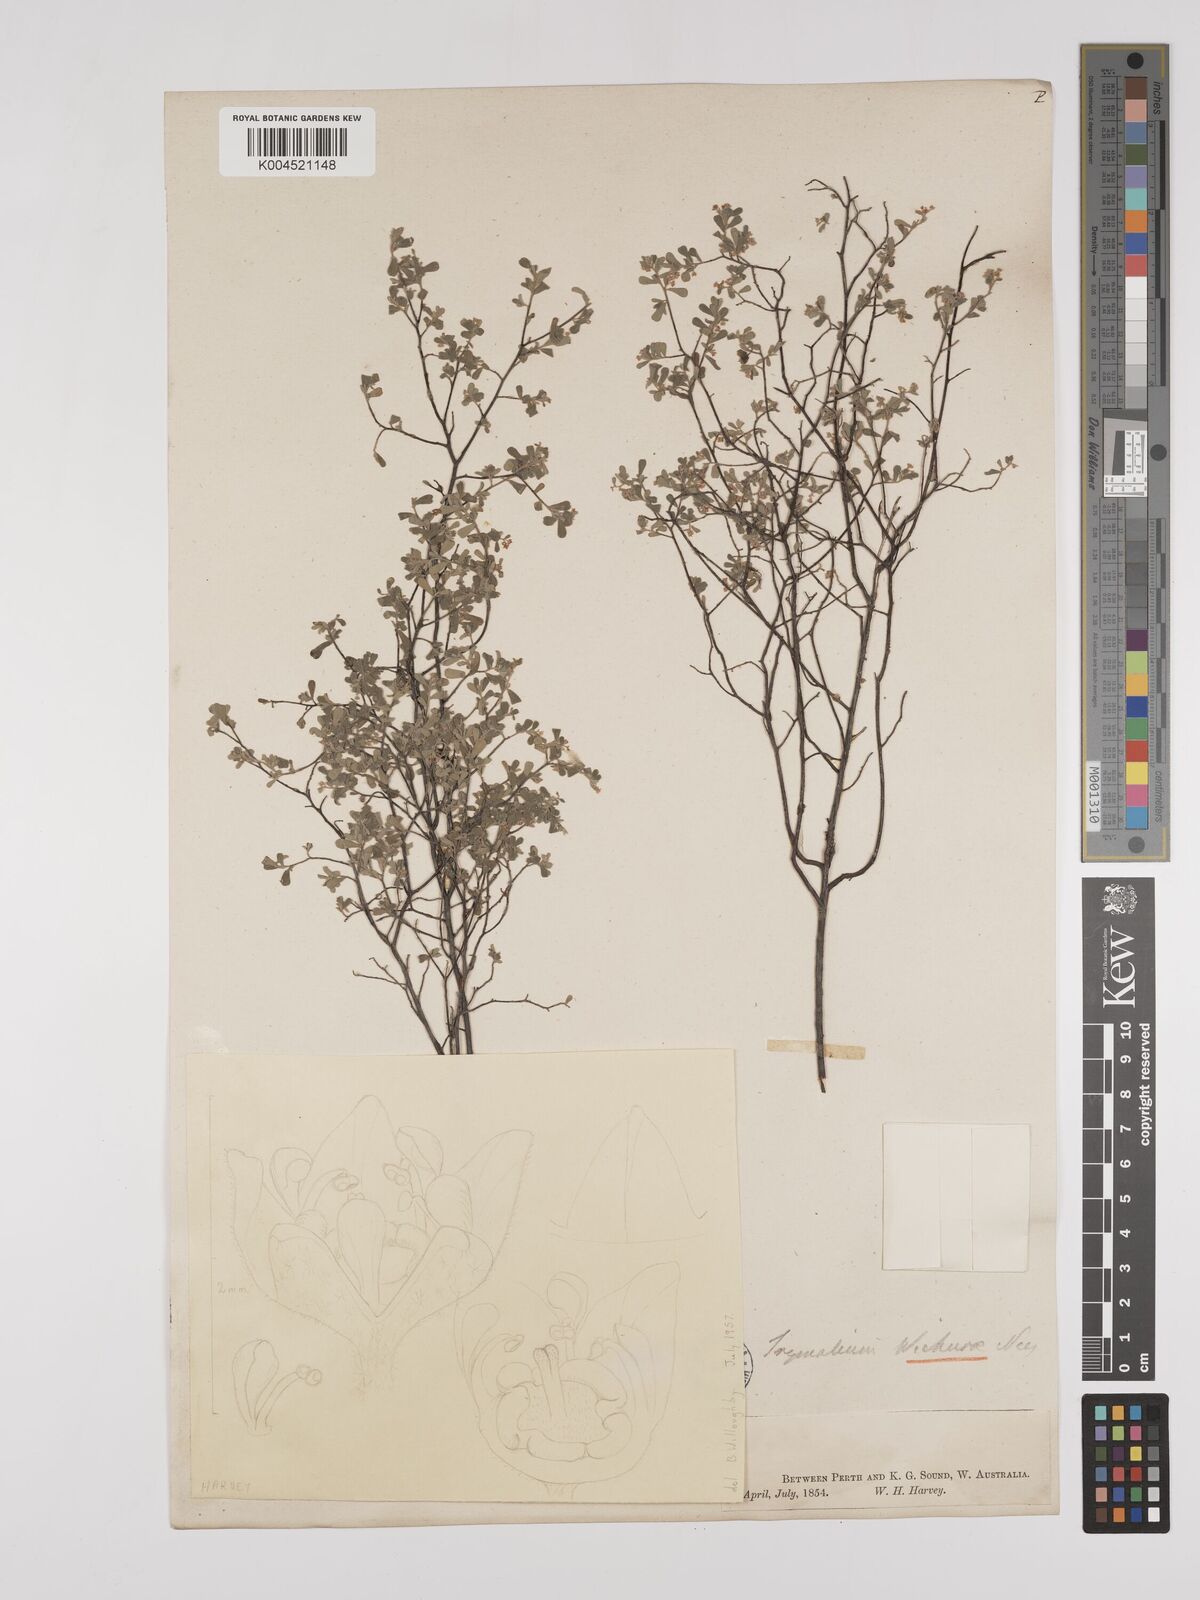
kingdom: Plantae
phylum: Tracheophyta
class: Magnoliopsida
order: Rosales
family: Rhamnaceae
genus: Polianthion
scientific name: Polianthion wichurae
